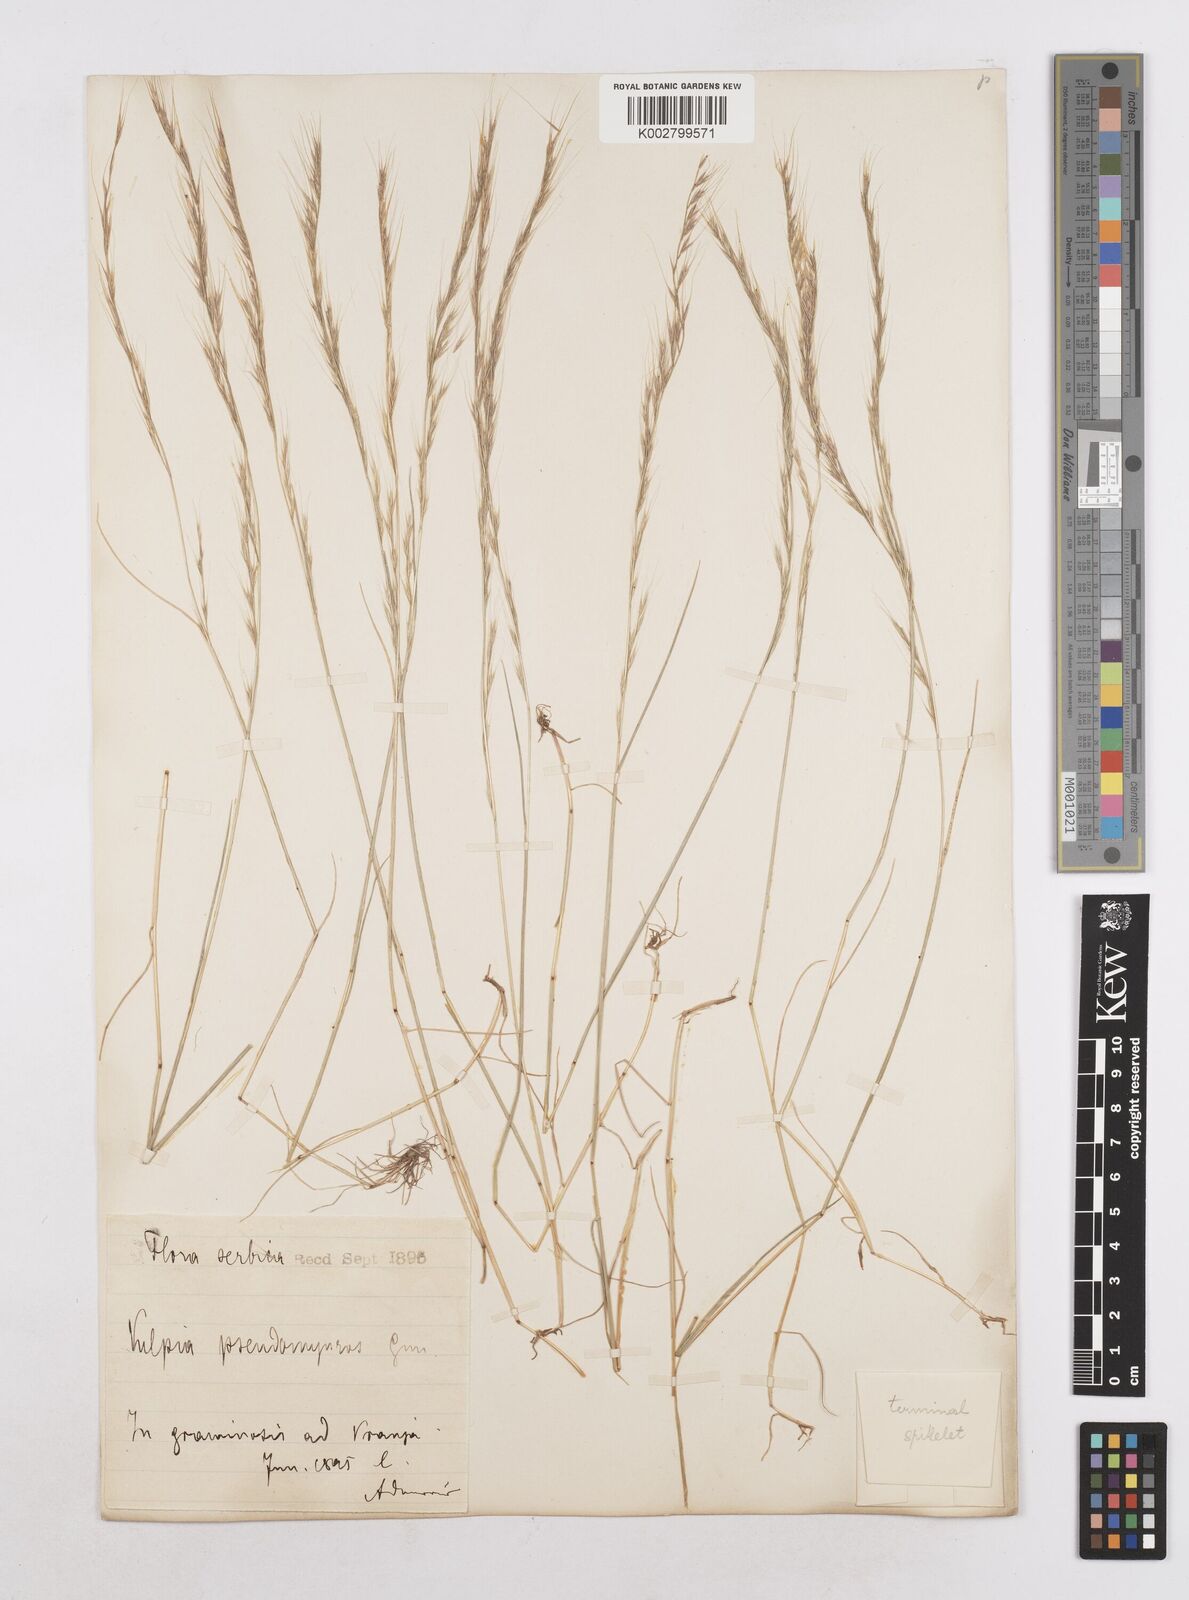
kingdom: Plantae
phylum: Tracheophyta
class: Liliopsida
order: Poales
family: Poaceae
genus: Festuca
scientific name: Festuca myuros
